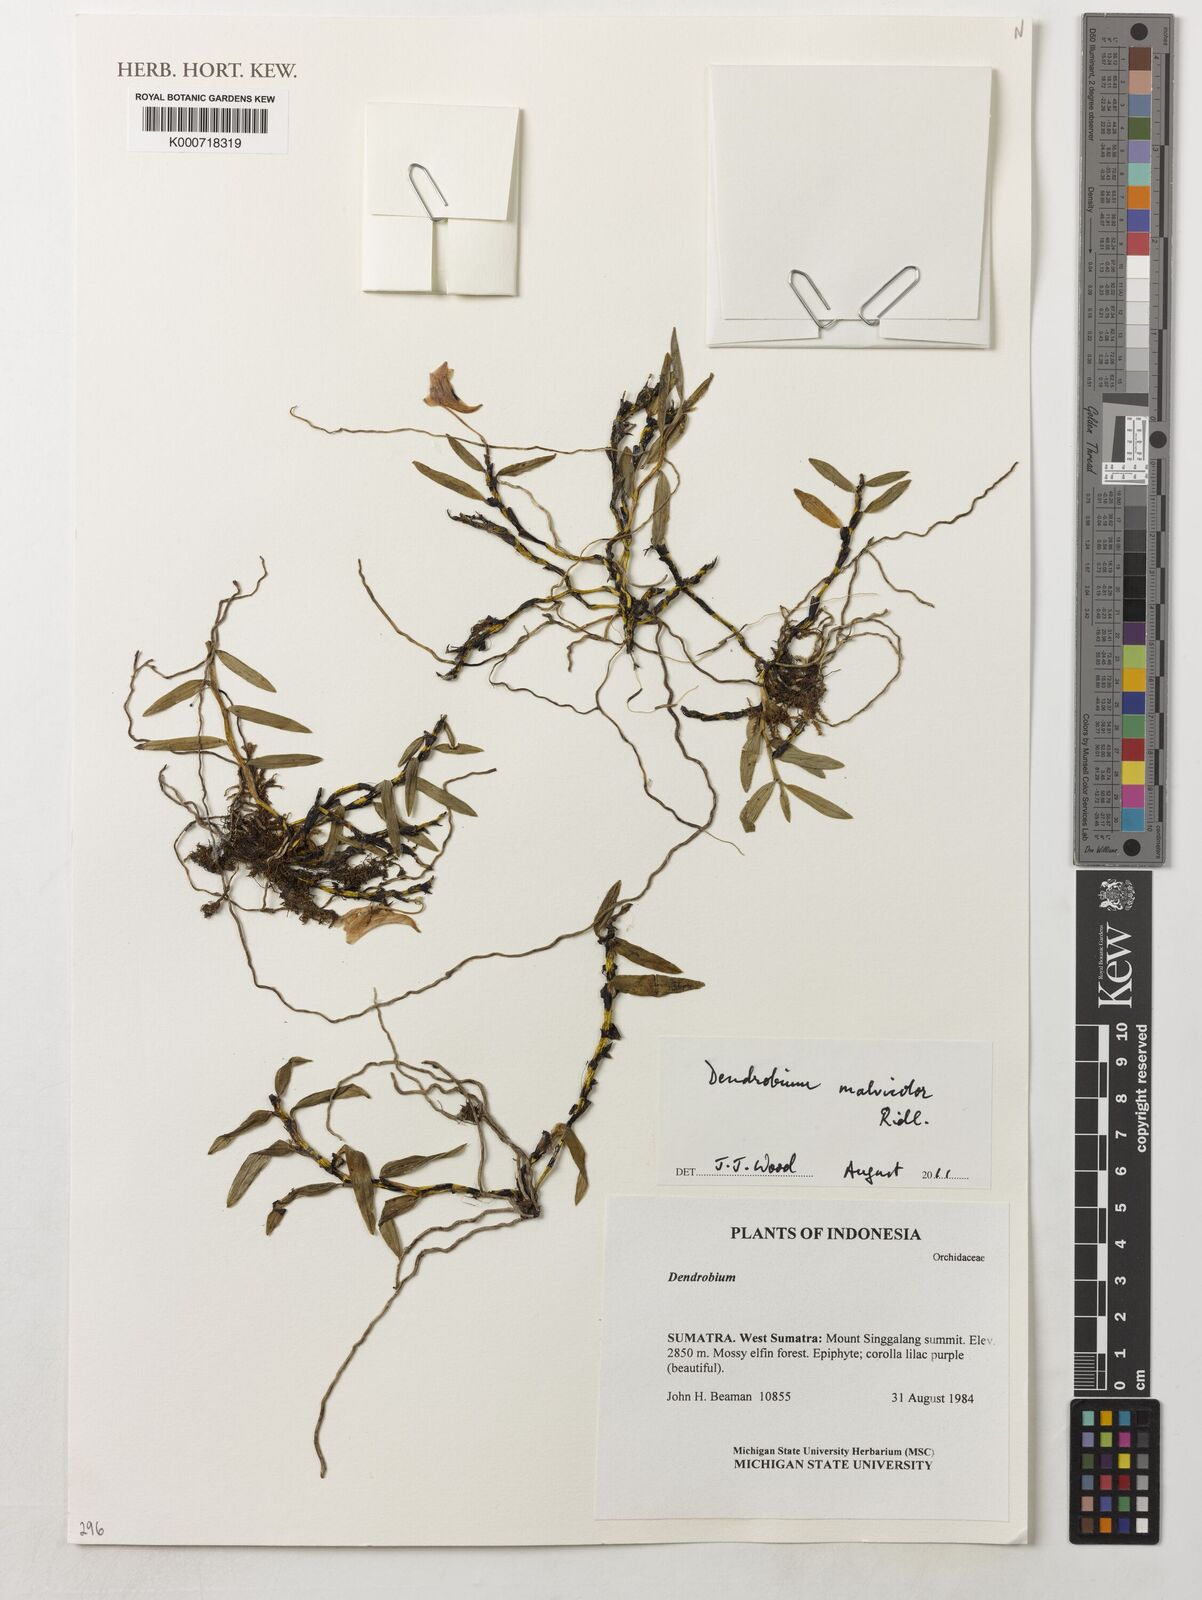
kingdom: Plantae
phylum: Tracheophyta
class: Liliopsida
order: Asparagales
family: Orchidaceae
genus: Dendrobium
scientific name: Dendrobium malvicolor
